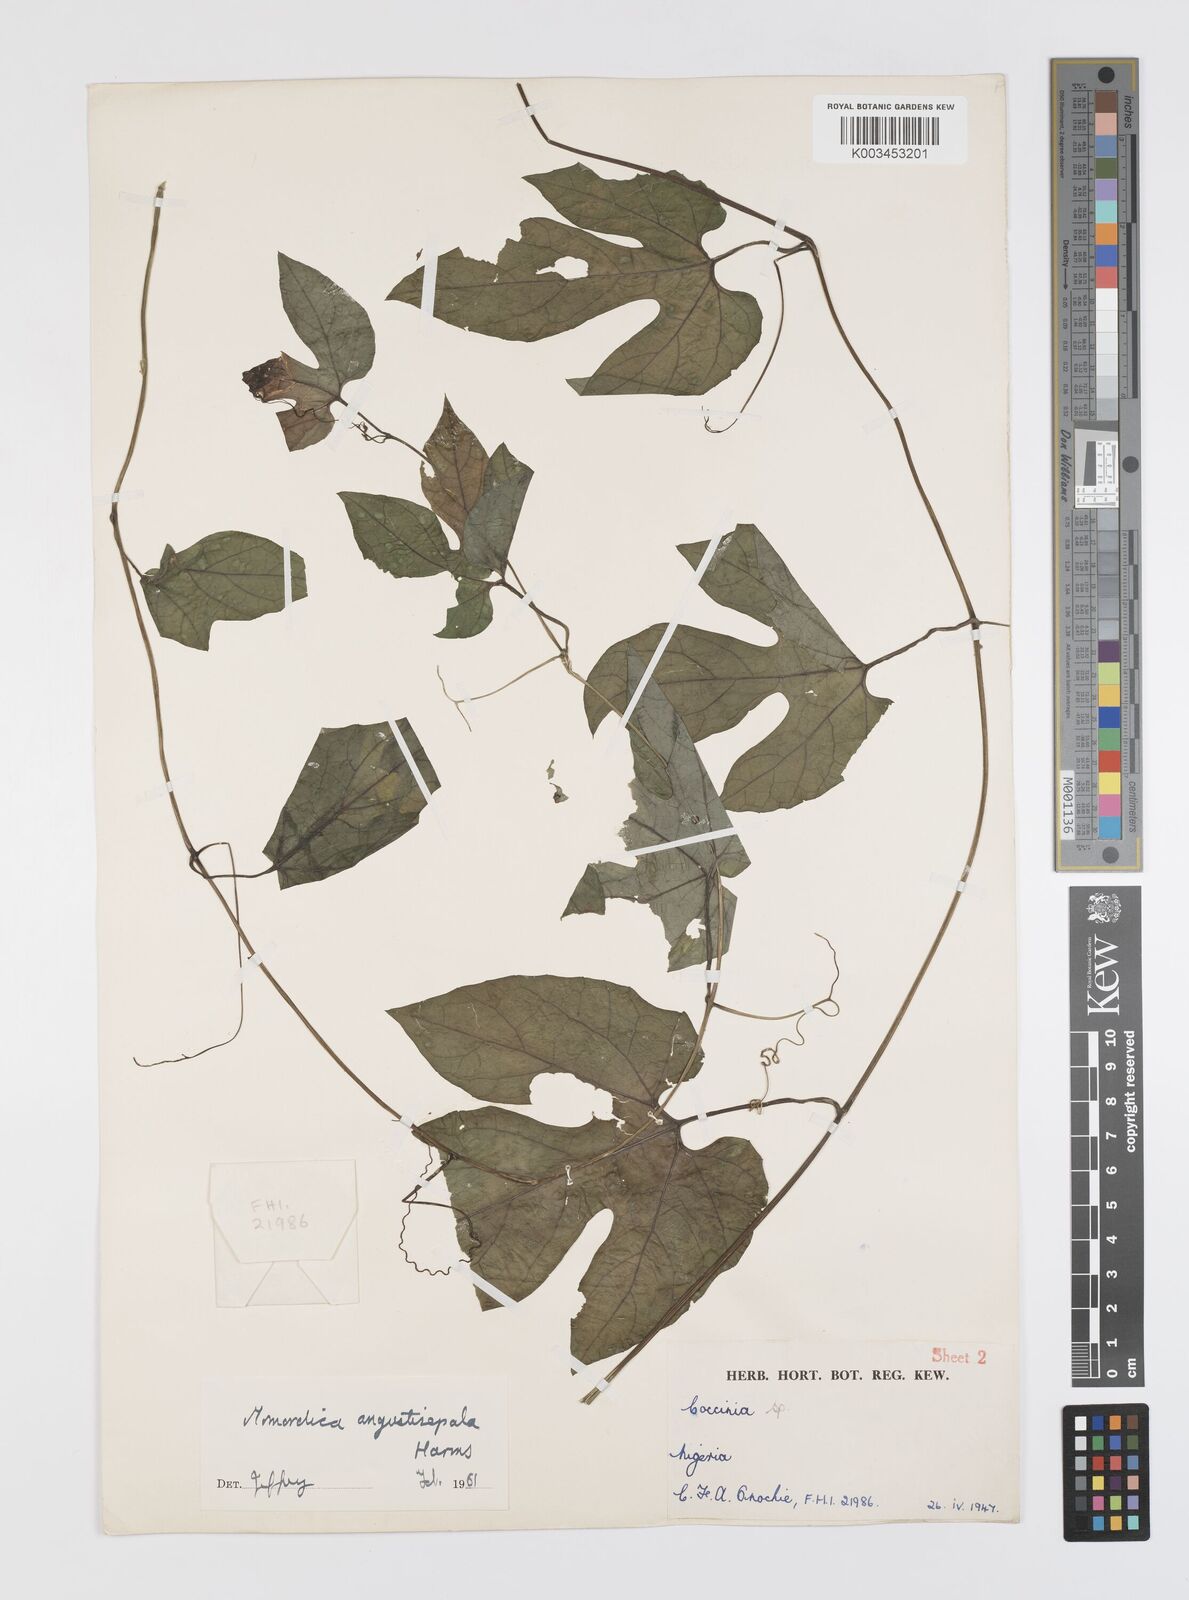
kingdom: Plantae
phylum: Tracheophyta
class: Magnoliopsida
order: Cucurbitales
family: Cucurbitaceae
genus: Momordica
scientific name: Momordica angustisepala
